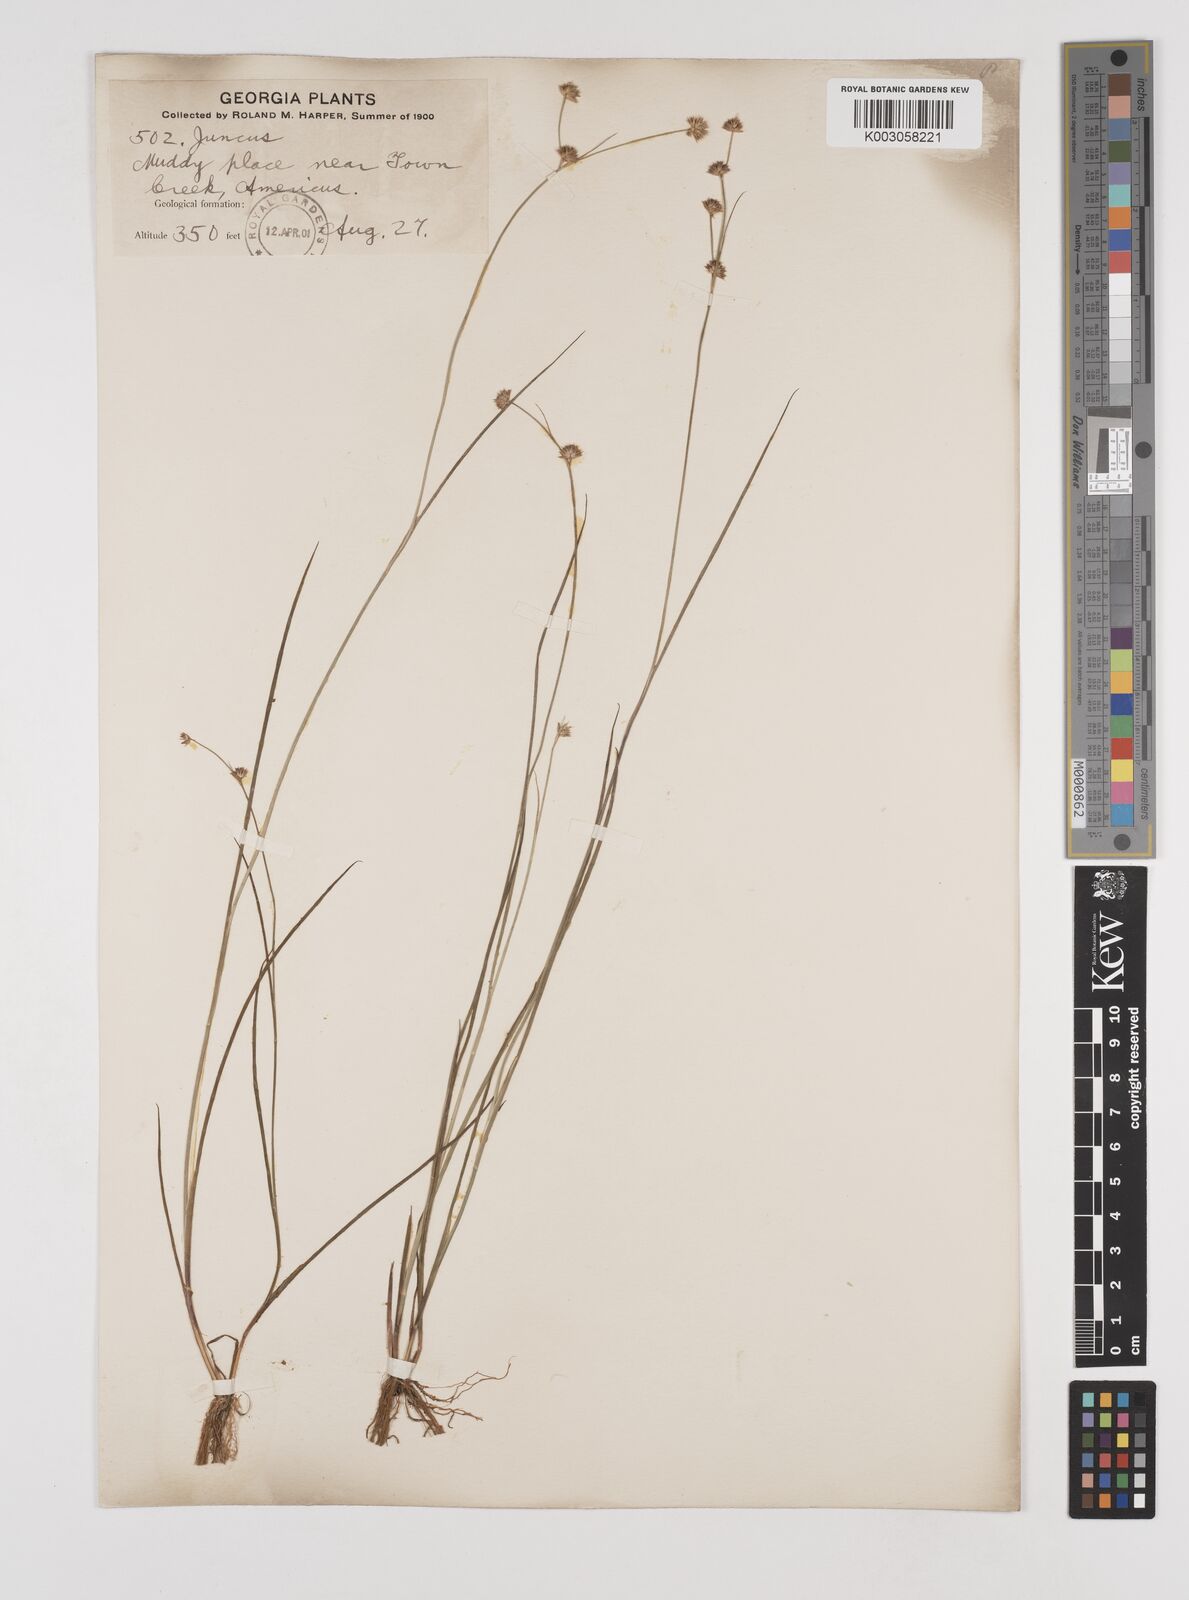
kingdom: Plantae
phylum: Tracheophyta
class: Liliopsida
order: Poales
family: Juncaceae
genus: Juncus
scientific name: Juncus
